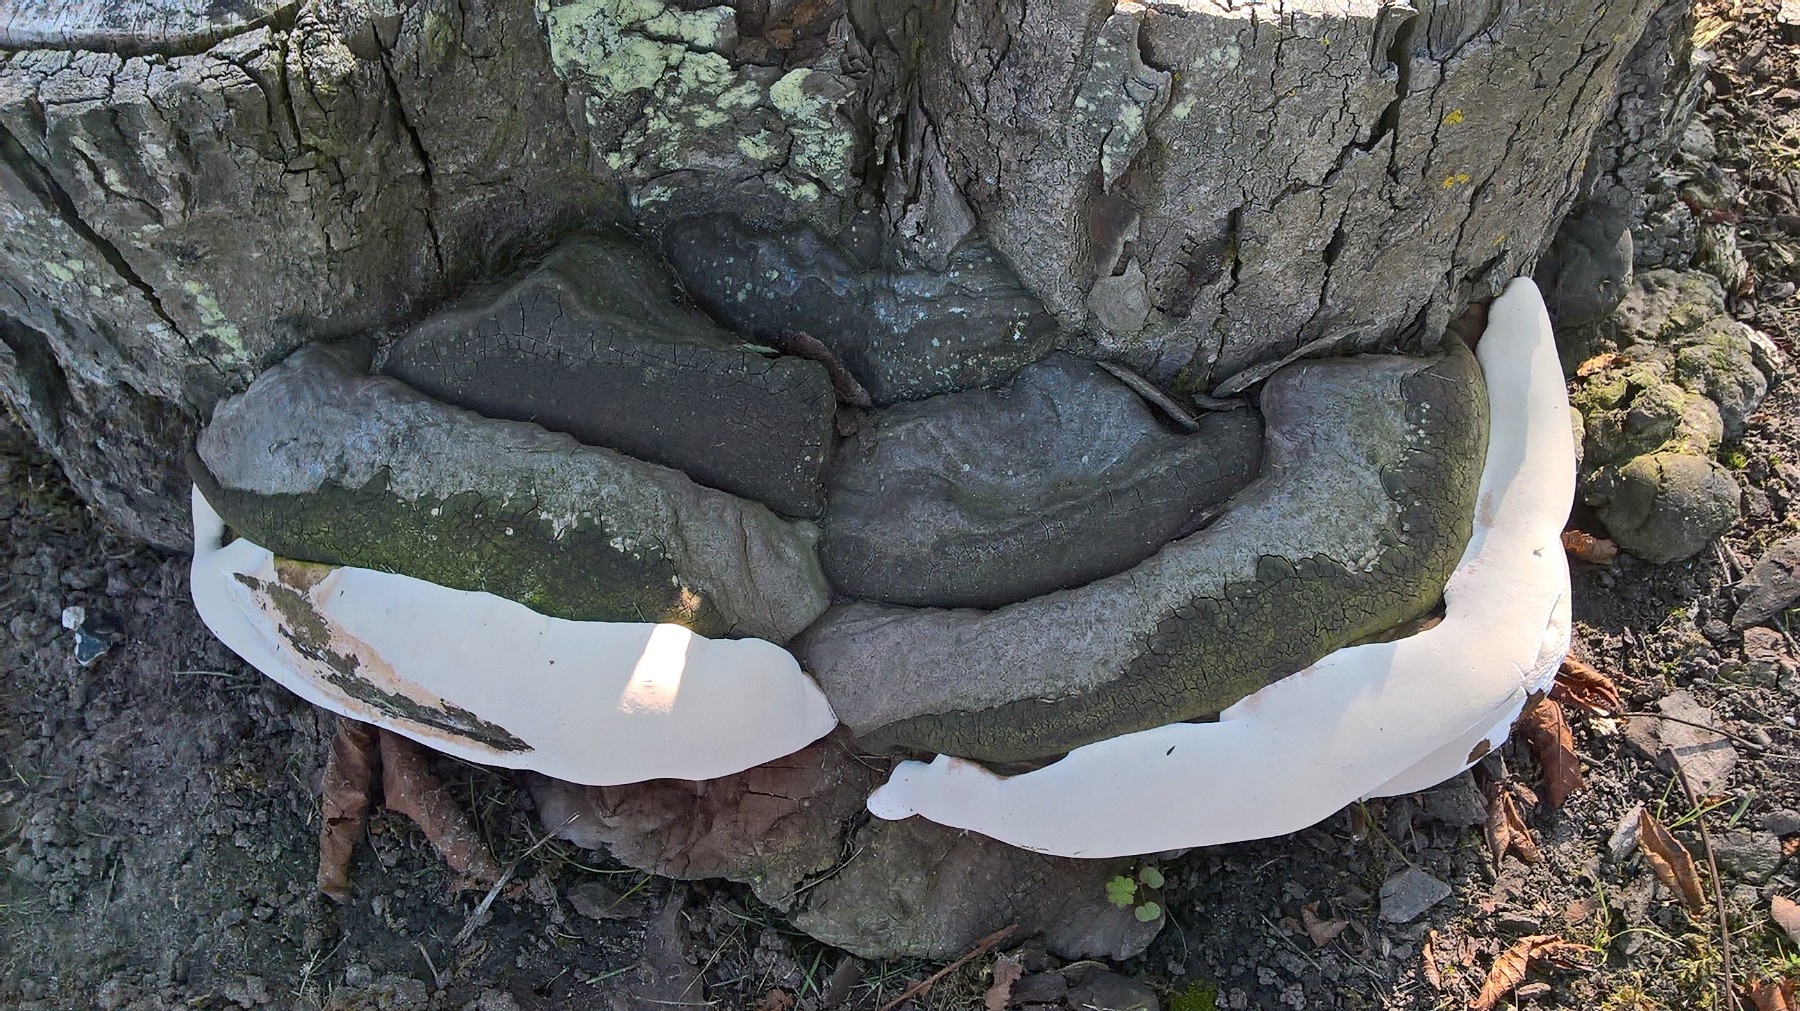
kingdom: Fungi
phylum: Basidiomycota
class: Agaricomycetes
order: Polyporales
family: Polyporaceae
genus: Ganoderma
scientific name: Ganoderma adspersum
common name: grov lakporesvamp
